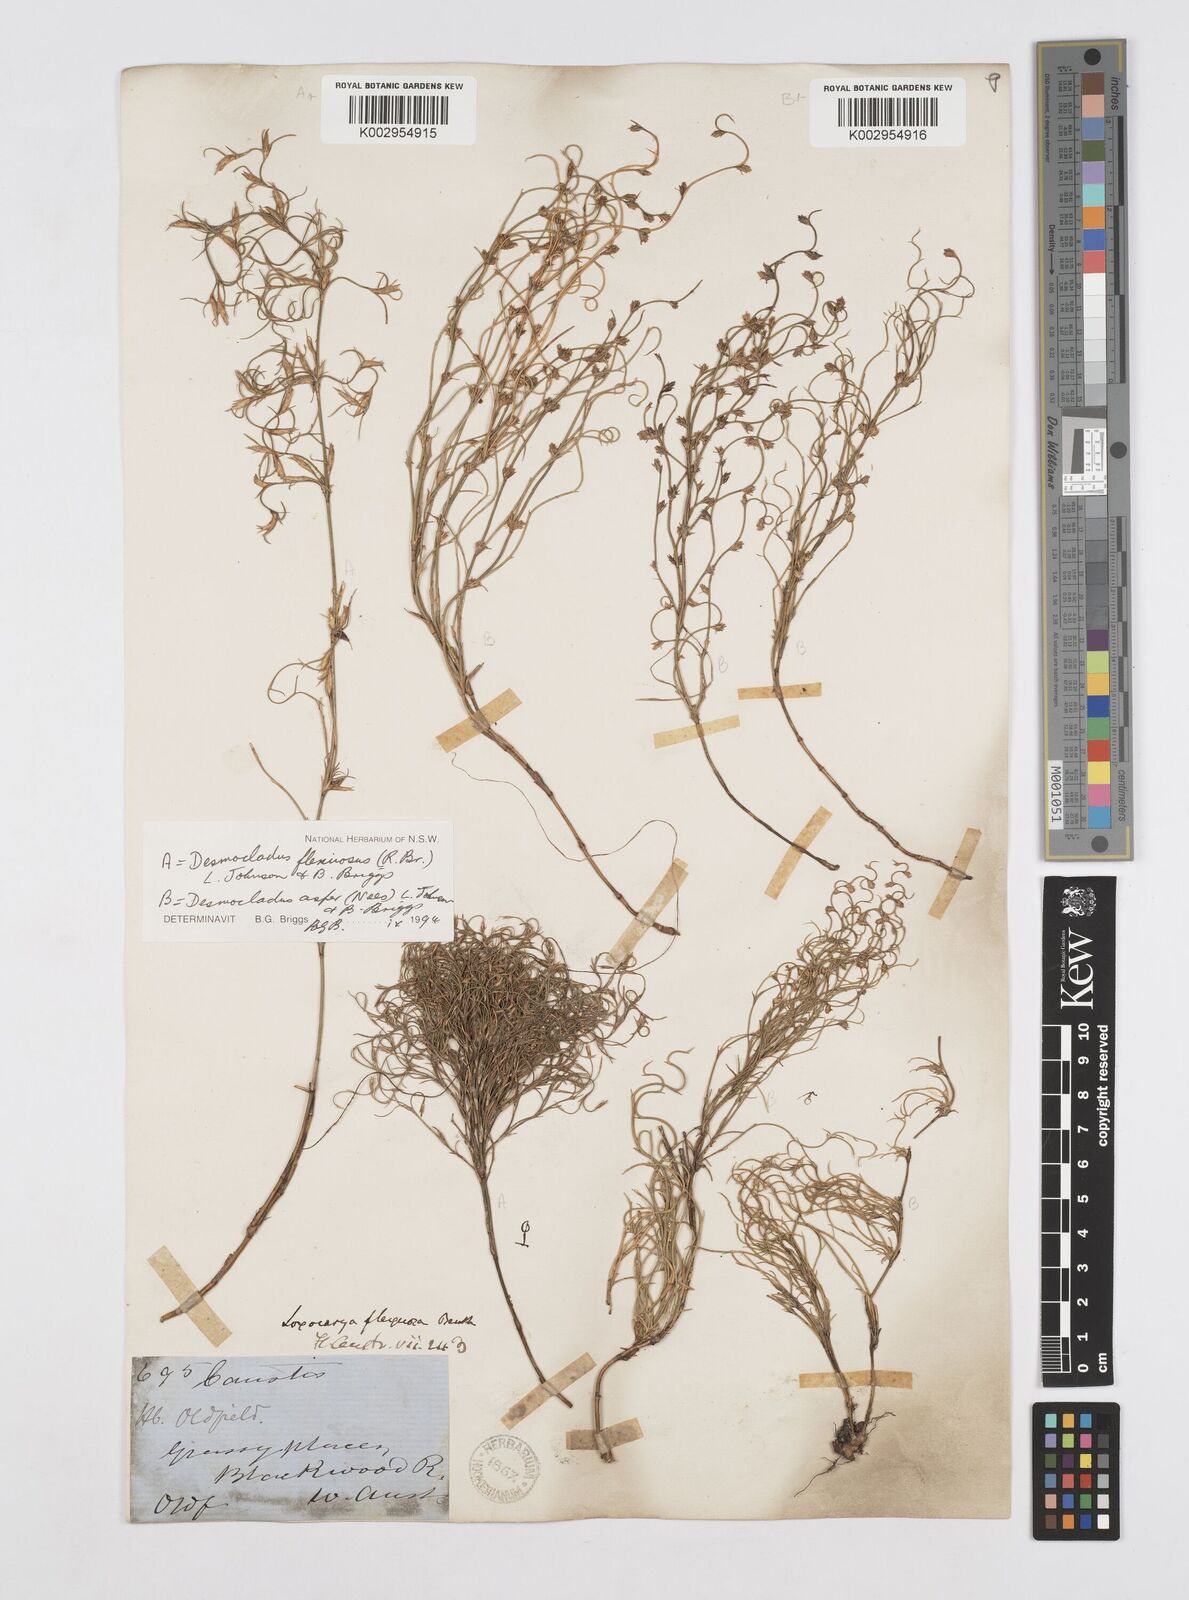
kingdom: Plantae
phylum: Tracheophyta
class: Liliopsida
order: Poales
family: Restionaceae
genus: Desmocladus
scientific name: Desmocladus flexuosus
